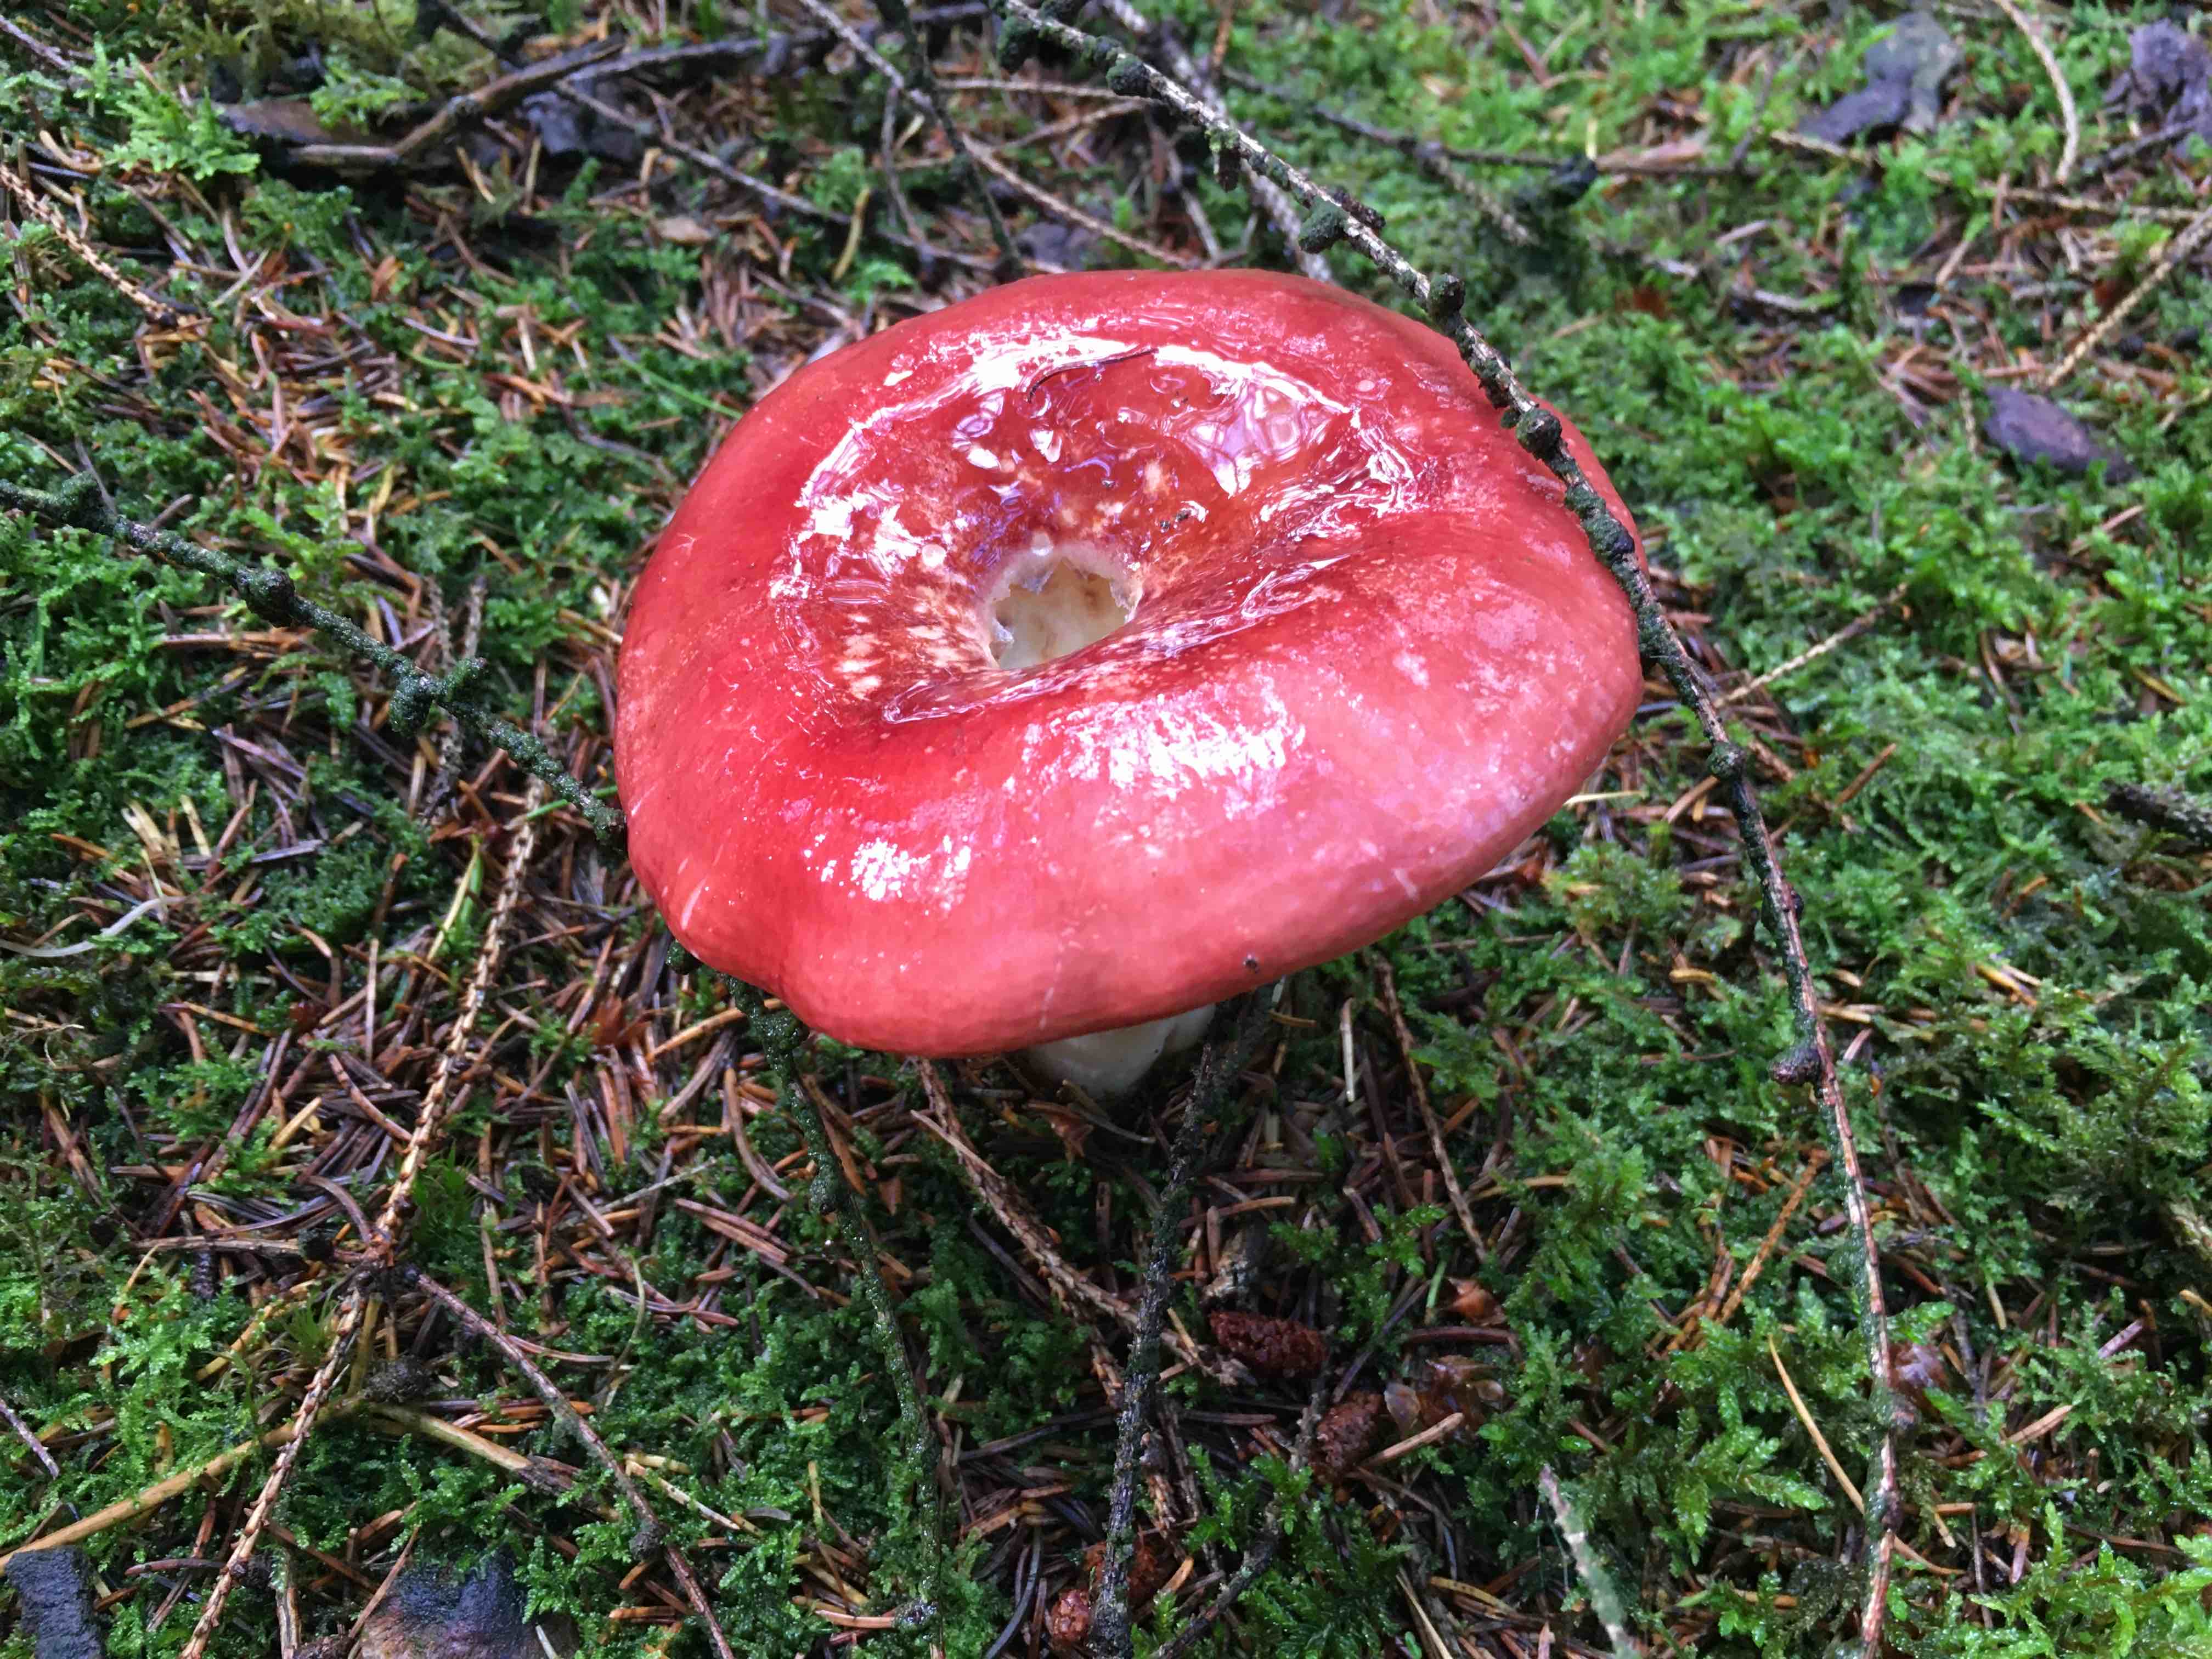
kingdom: Fungi
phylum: Basidiomycota
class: Agaricomycetes
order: Russulales
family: Russulaceae
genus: Russula
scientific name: Russula paludosa
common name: prægtig skørhat
